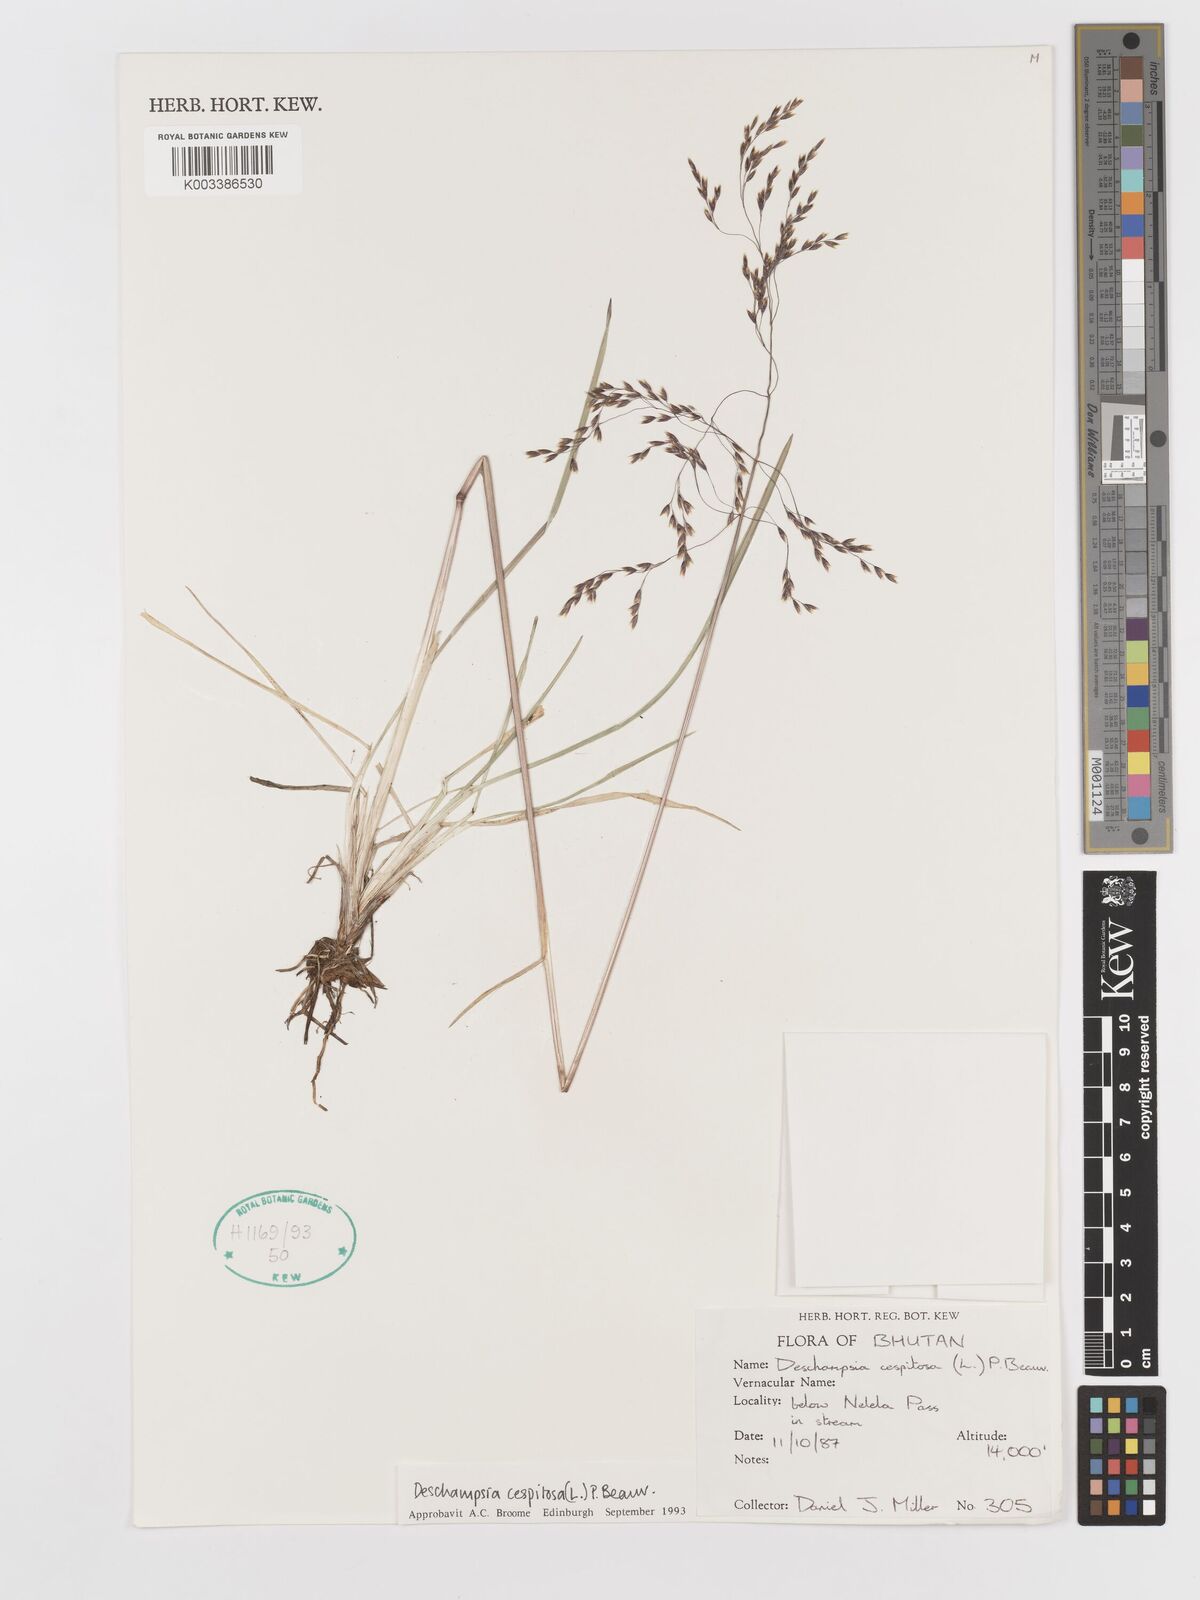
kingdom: Plantae
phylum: Tracheophyta
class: Liliopsida
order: Poales
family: Poaceae
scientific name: Poaceae
